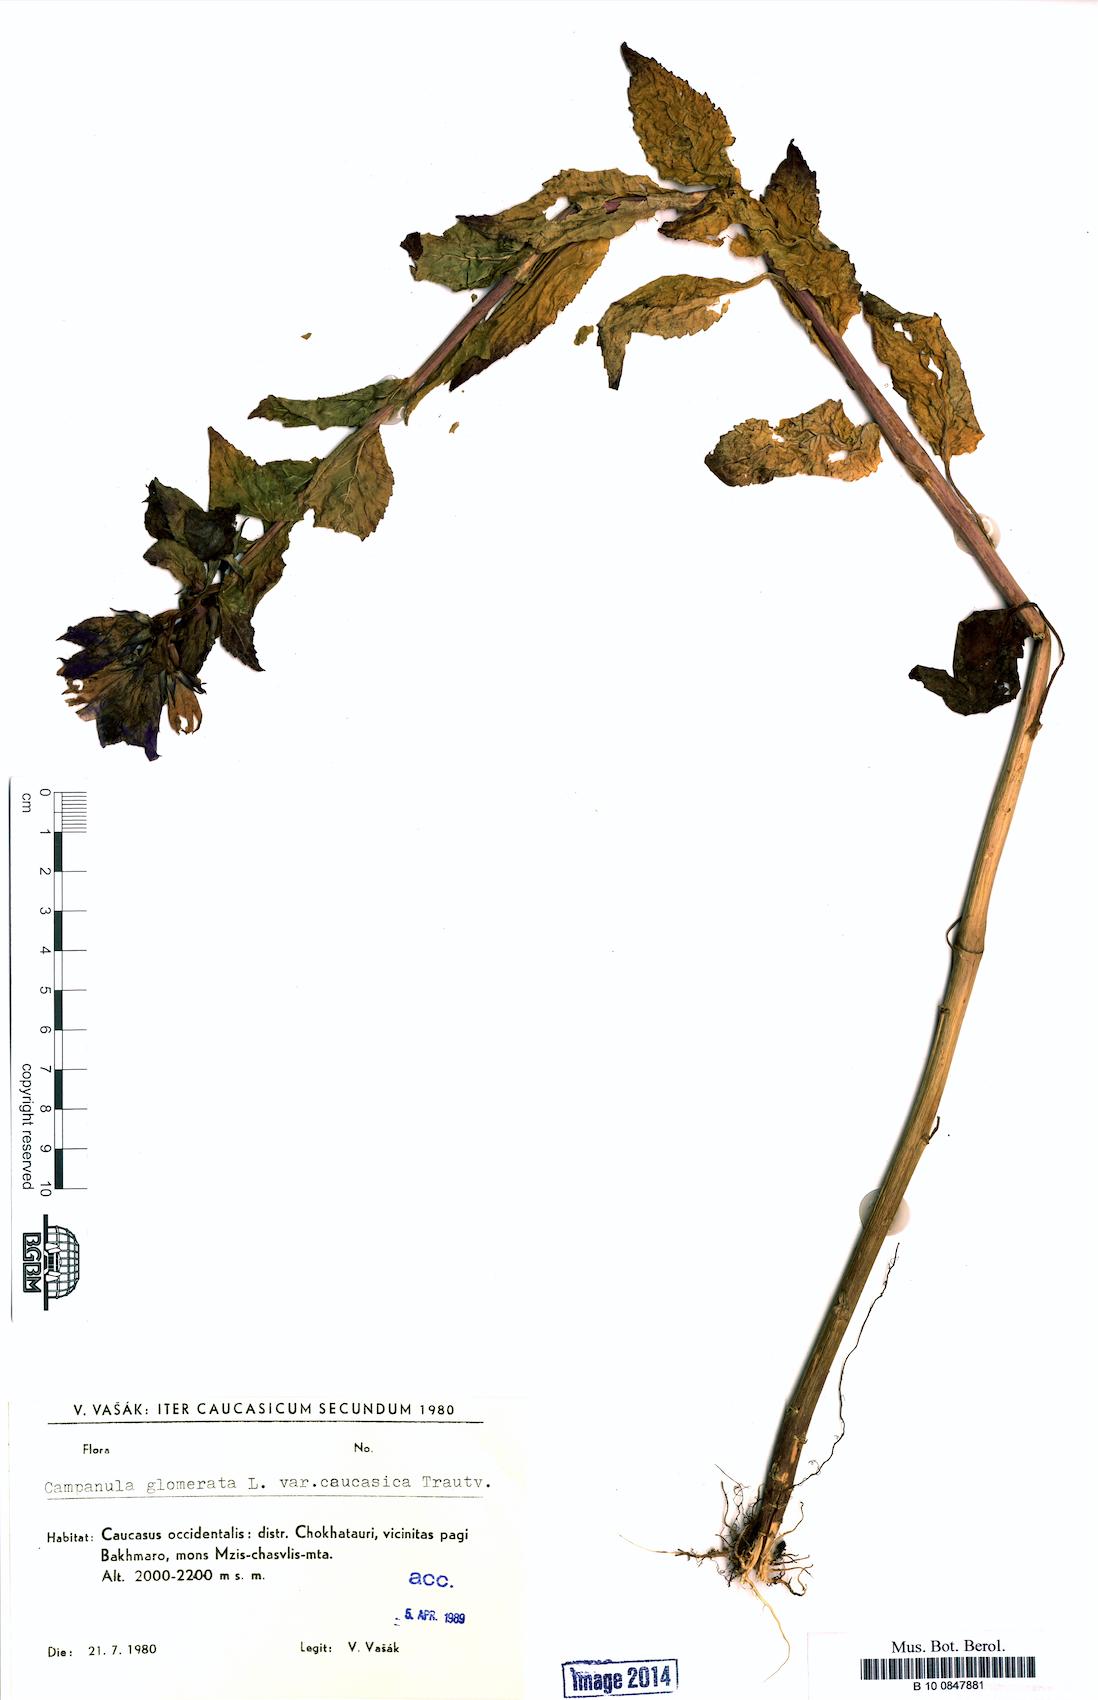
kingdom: Plantae
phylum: Tracheophyta
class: Magnoliopsida
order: Asterales
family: Campanulaceae
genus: Campanula
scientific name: Campanula glomerata
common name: Clustered bellflower
